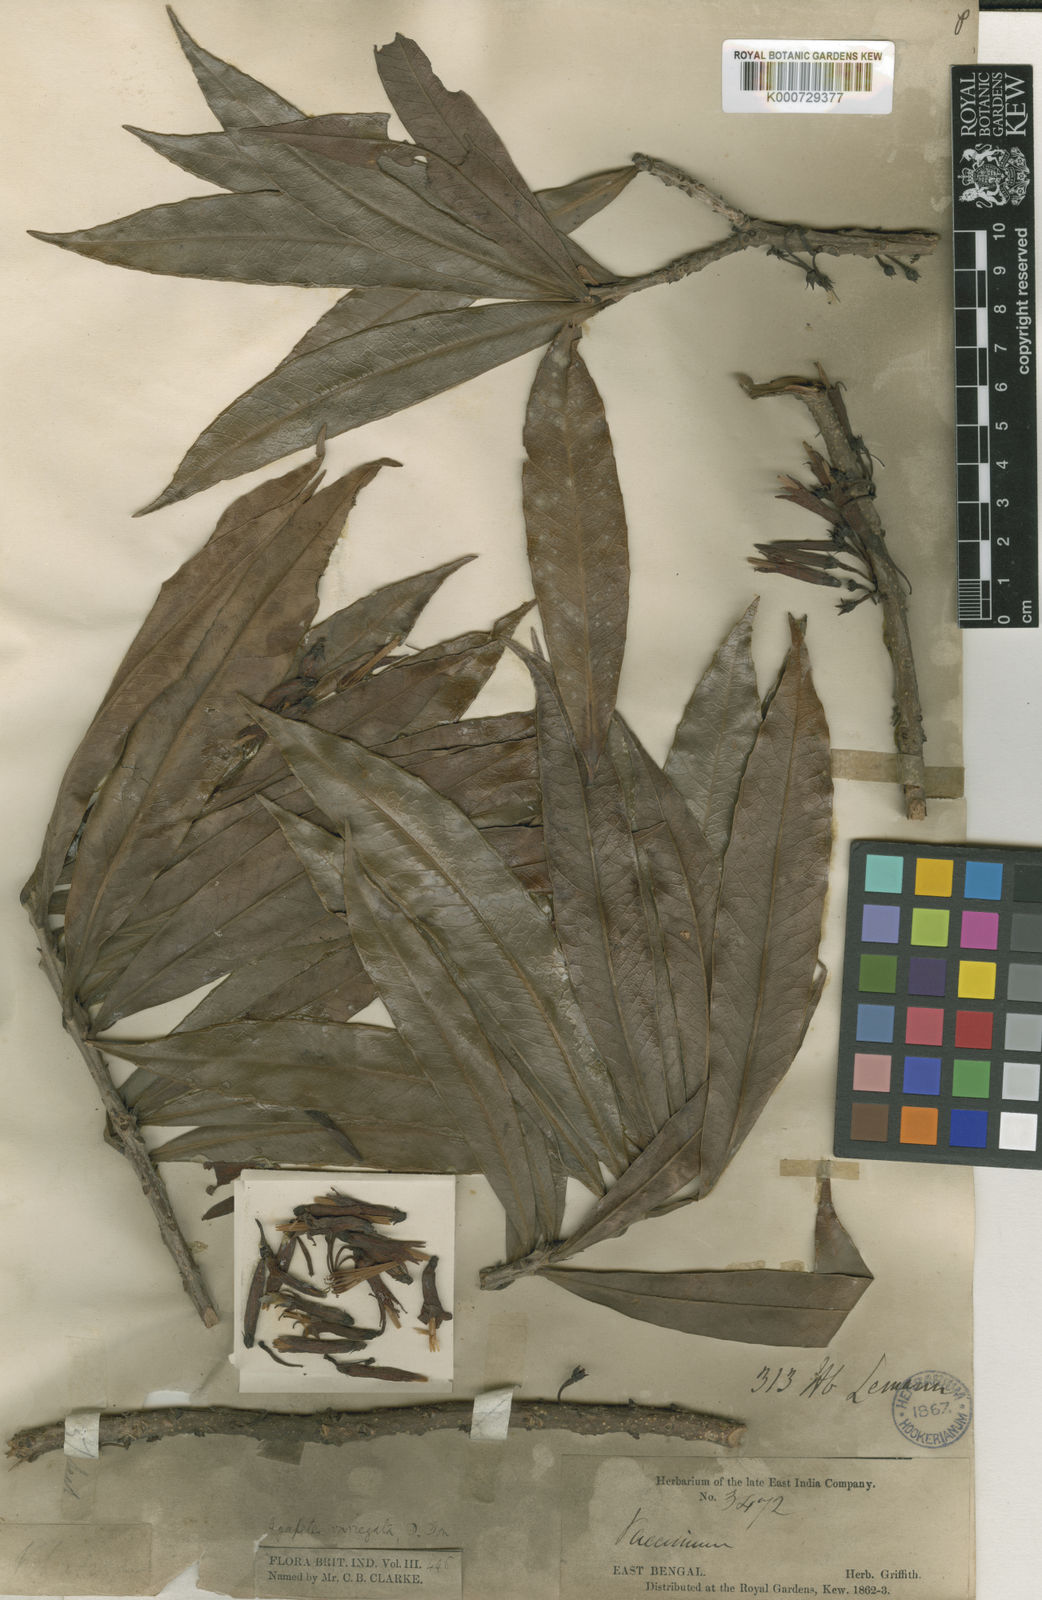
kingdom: Plantae
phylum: Tracheophyta
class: Magnoliopsida
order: Ericales
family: Ericaceae
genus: Agapetes
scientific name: Agapetes odontocera
